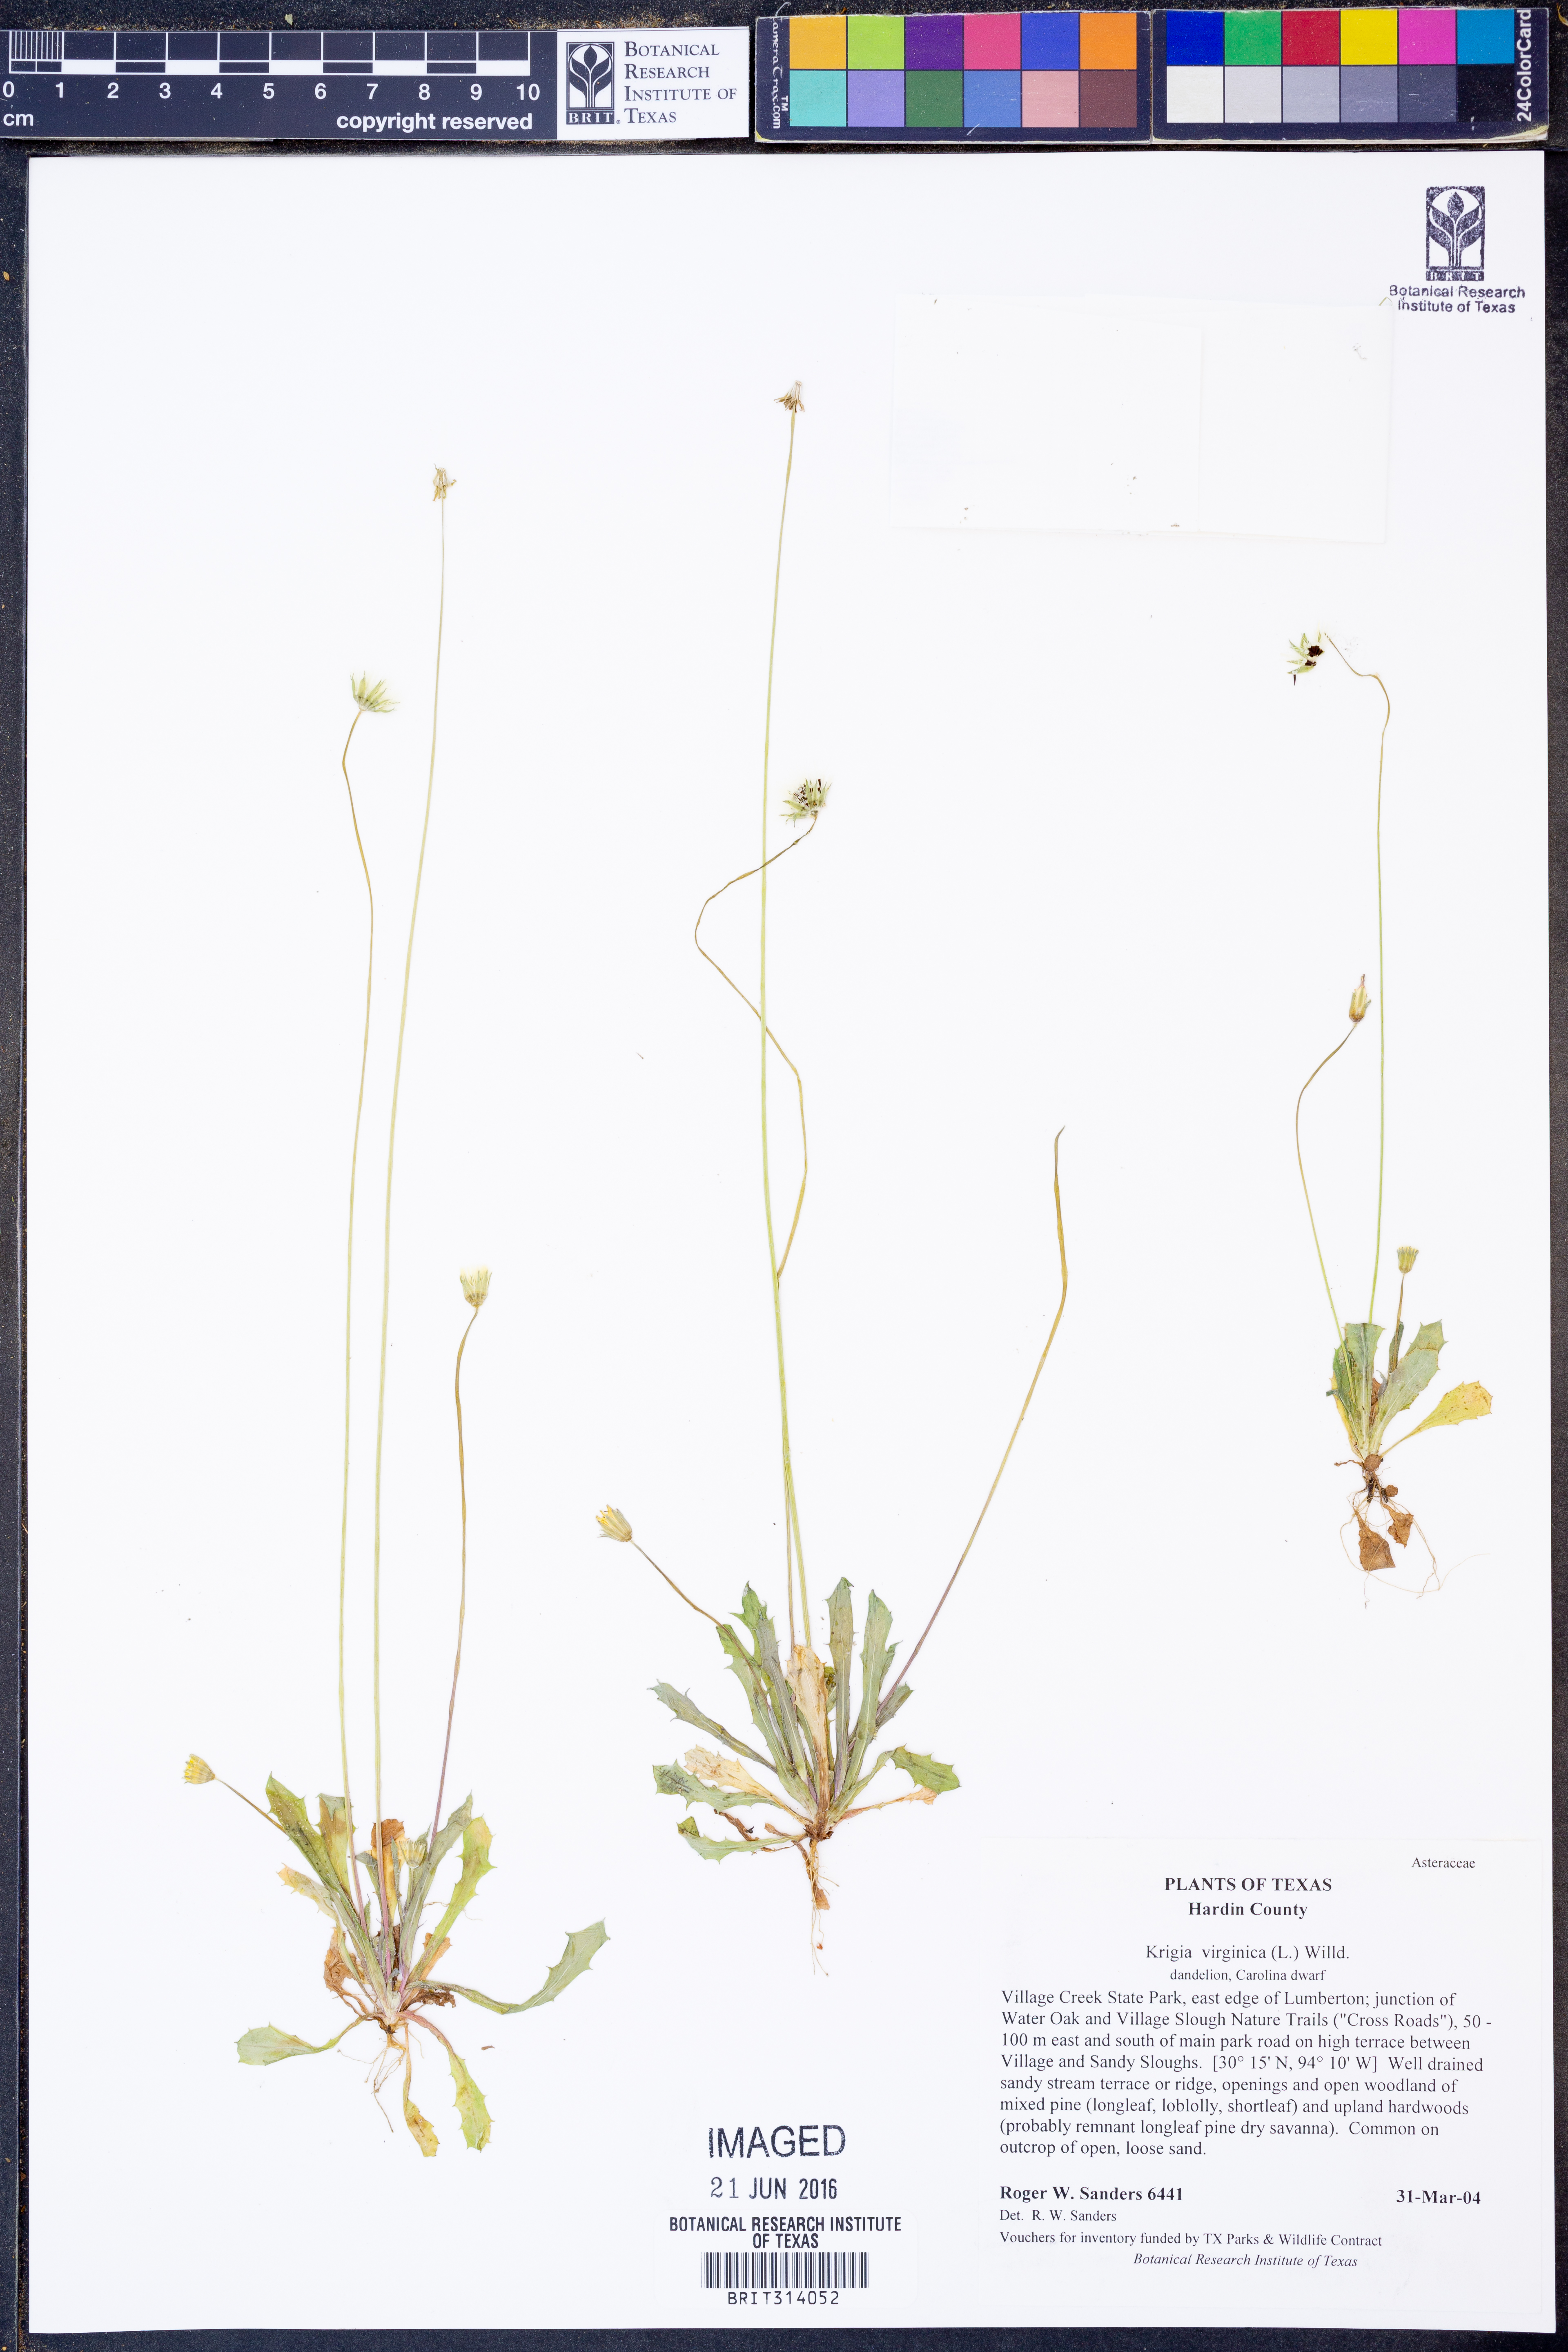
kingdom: Plantae
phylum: Tracheophyta
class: Magnoliopsida
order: Asterales
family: Asteraceae
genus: Krigia
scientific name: Krigia virginica
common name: Virginia dwarf-dandelion
